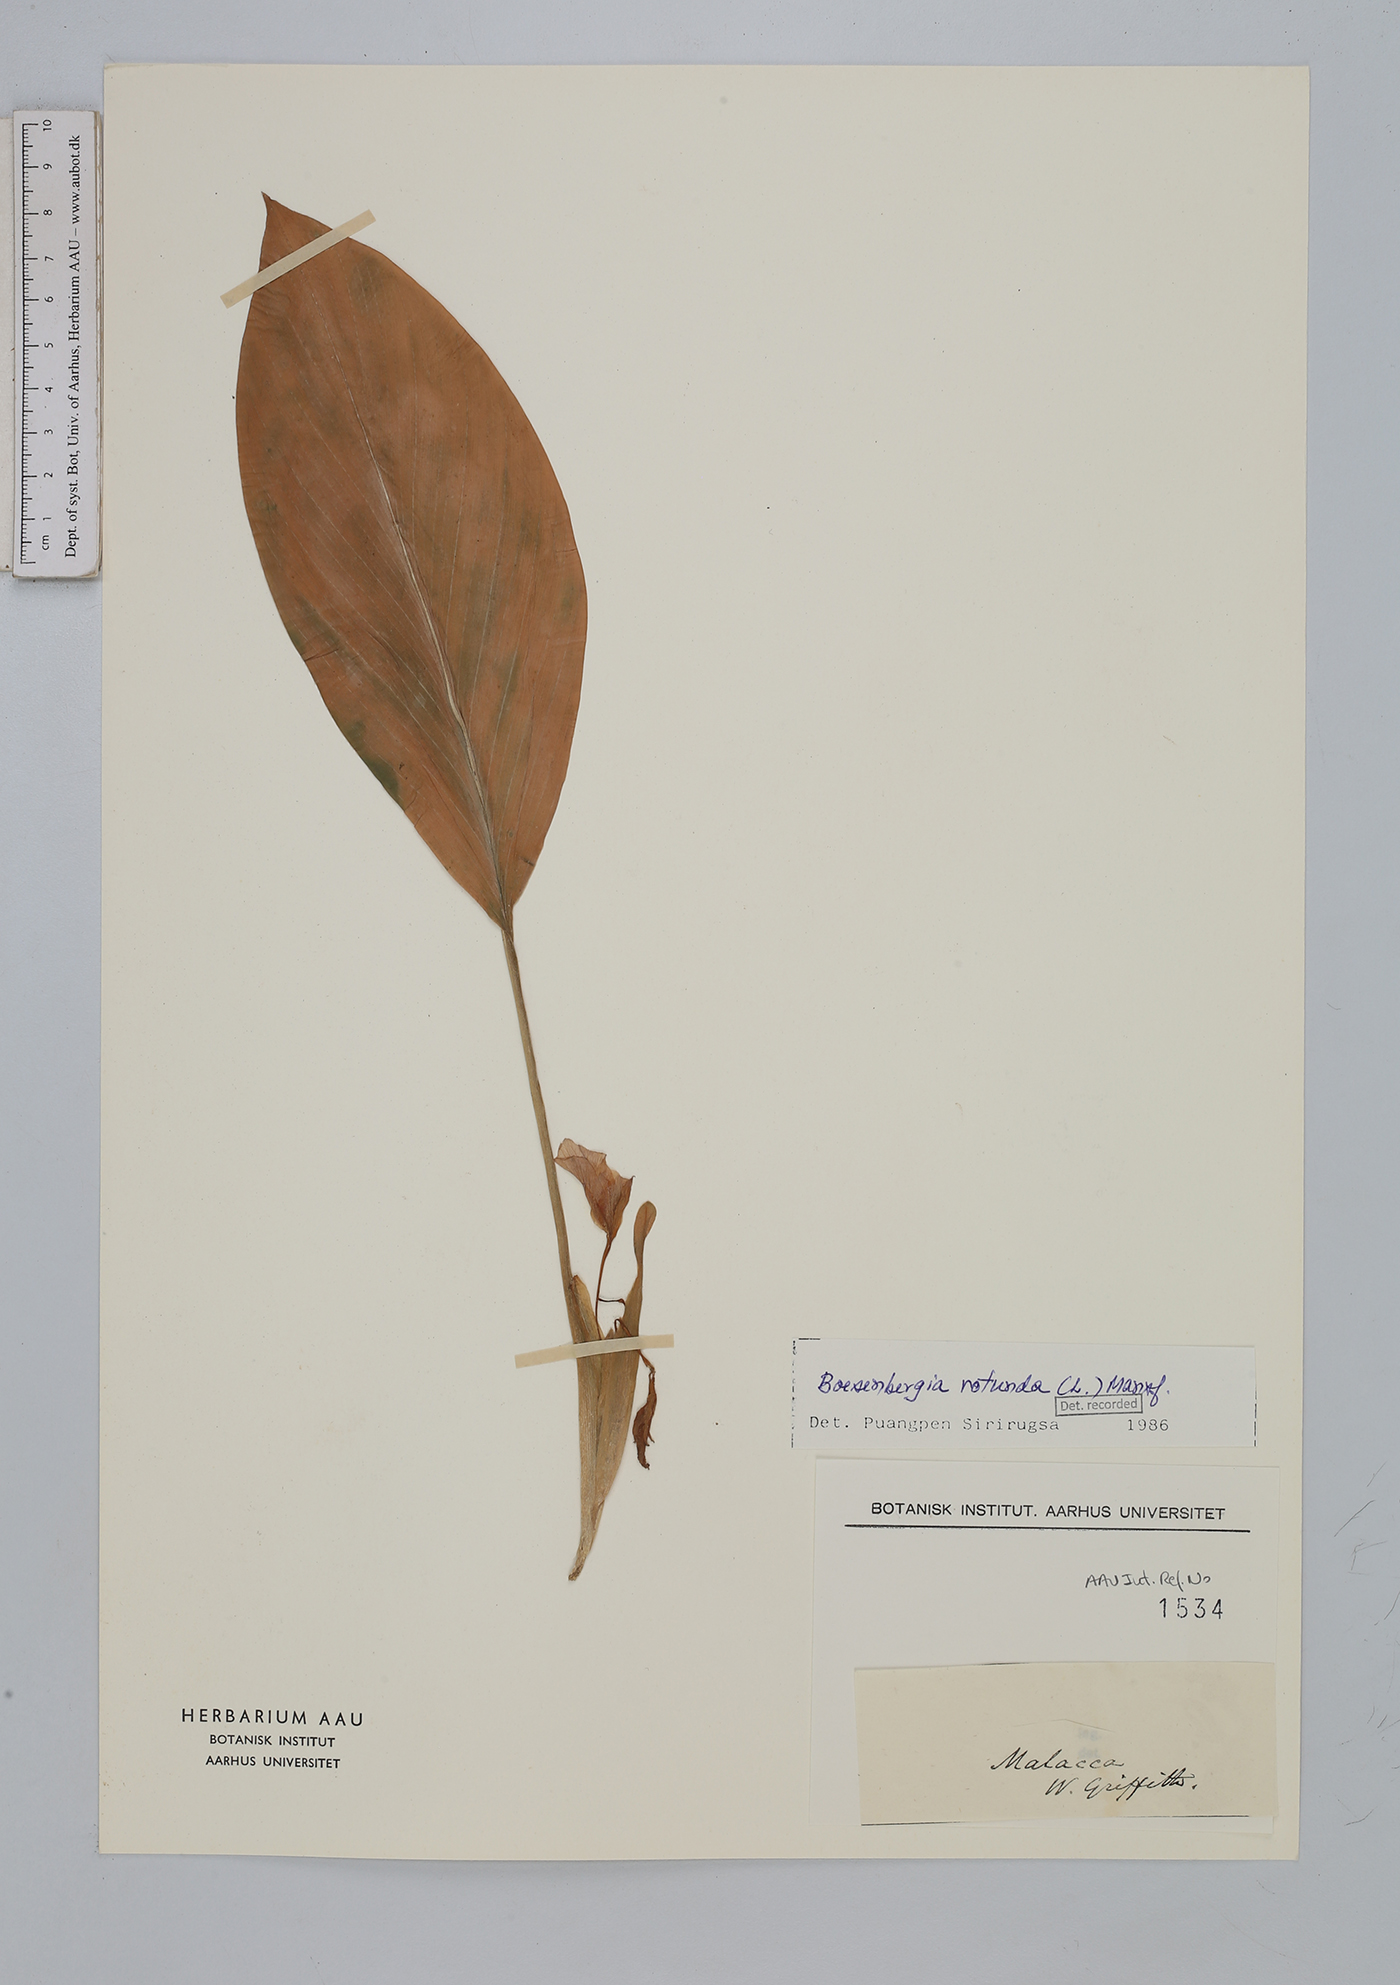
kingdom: Plantae
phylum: Tracheophyta
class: Liliopsida
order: Zingiberales
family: Zingiberaceae
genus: Boesenbergia
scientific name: Boesenbergia rotunda
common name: Chinese ginger
